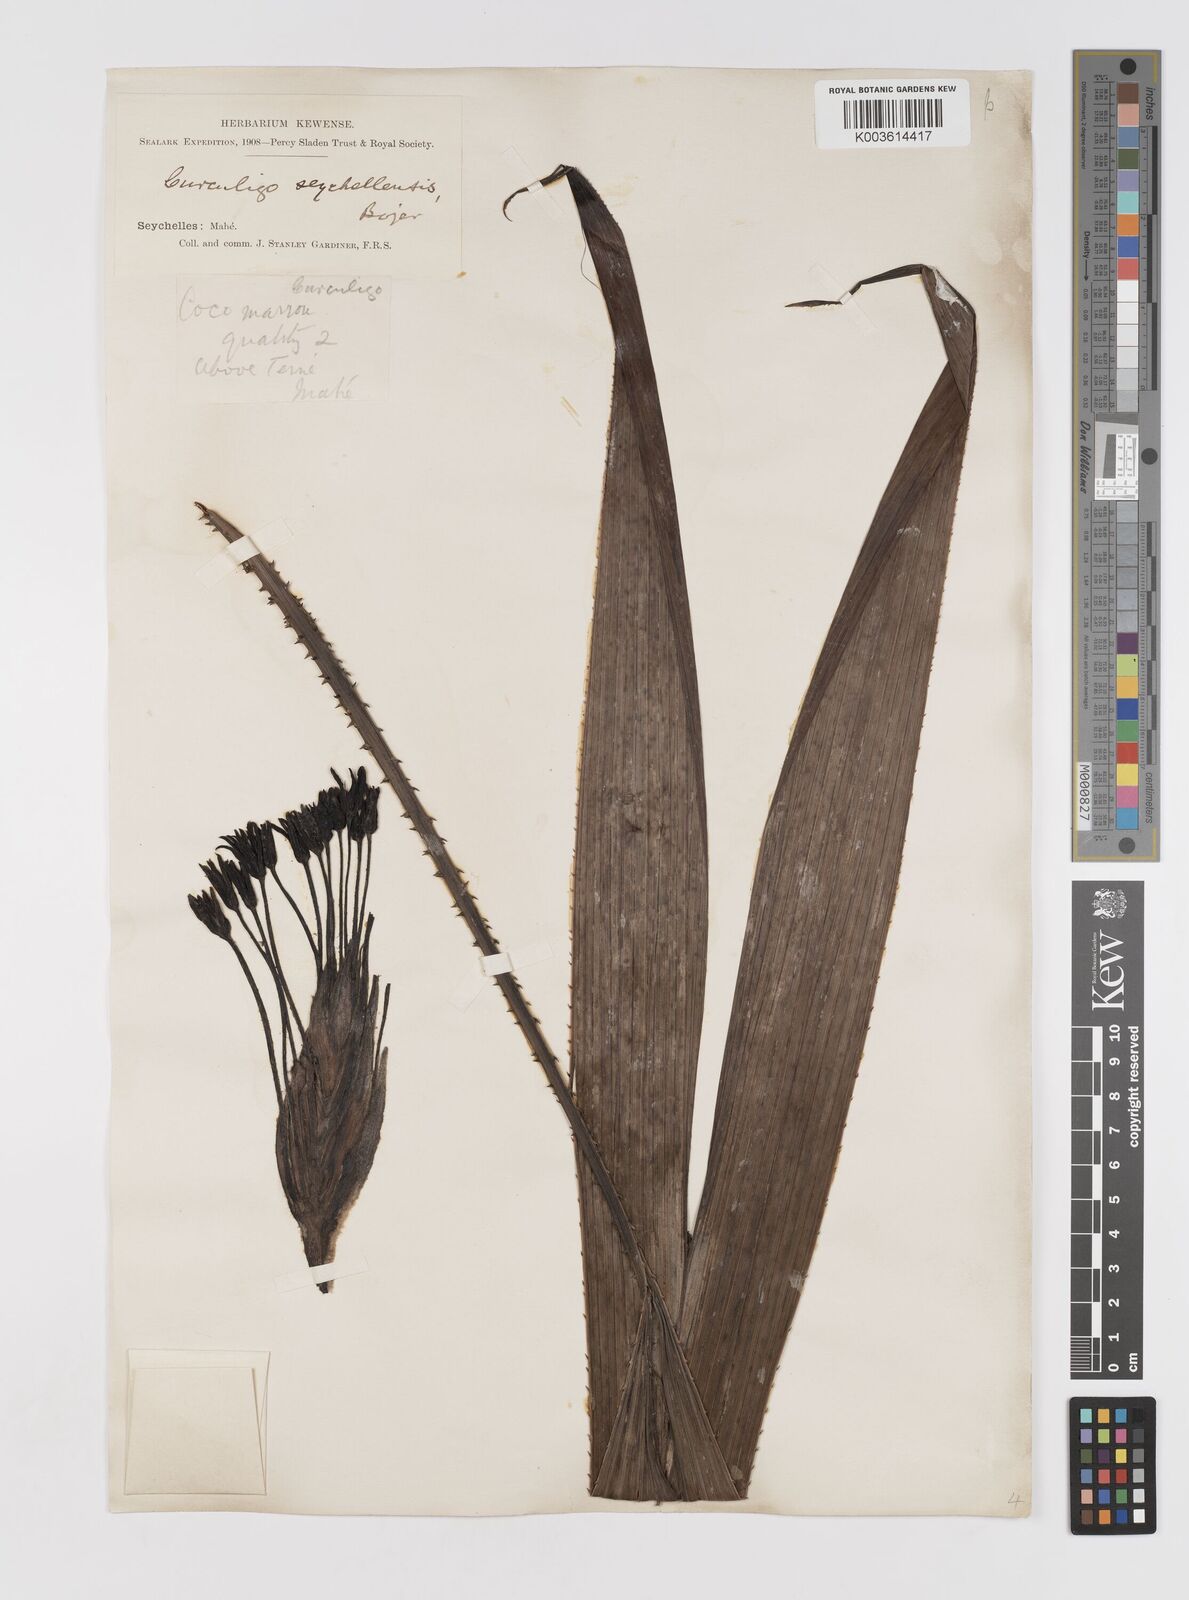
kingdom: Plantae
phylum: Tracheophyta
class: Liliopsida
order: Asparagales
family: Hypoxidaceae
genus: Curculigo
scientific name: Curculigo seychellensis
